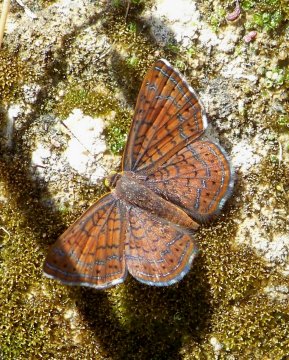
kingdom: Animalia
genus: Calephelis
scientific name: Calephelis arizonensis
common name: Arizona Metalmark
